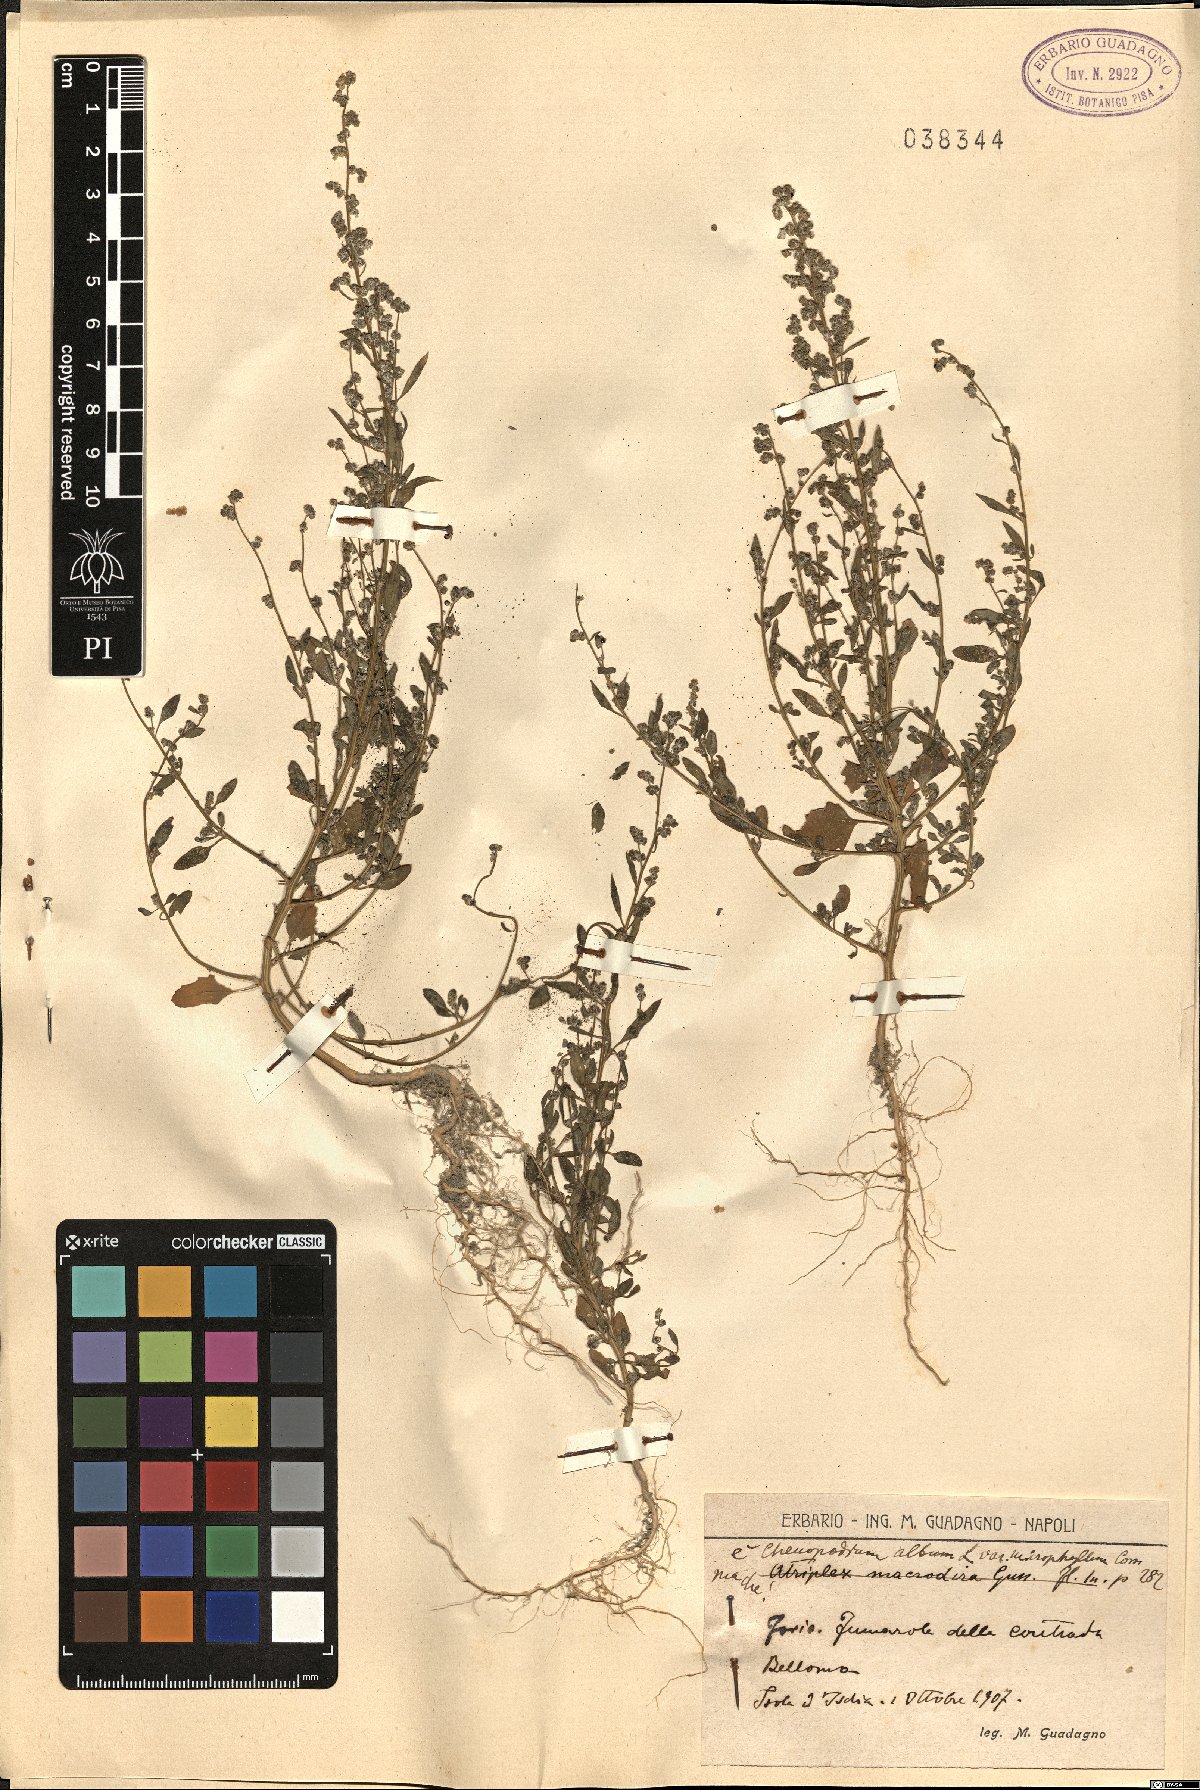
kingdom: Plantae
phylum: Tracheophyta
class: Magnoliopsida
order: Caryophyllales
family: Amaranthaceae
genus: Chenopodium
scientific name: Chenopodium striatiforme
